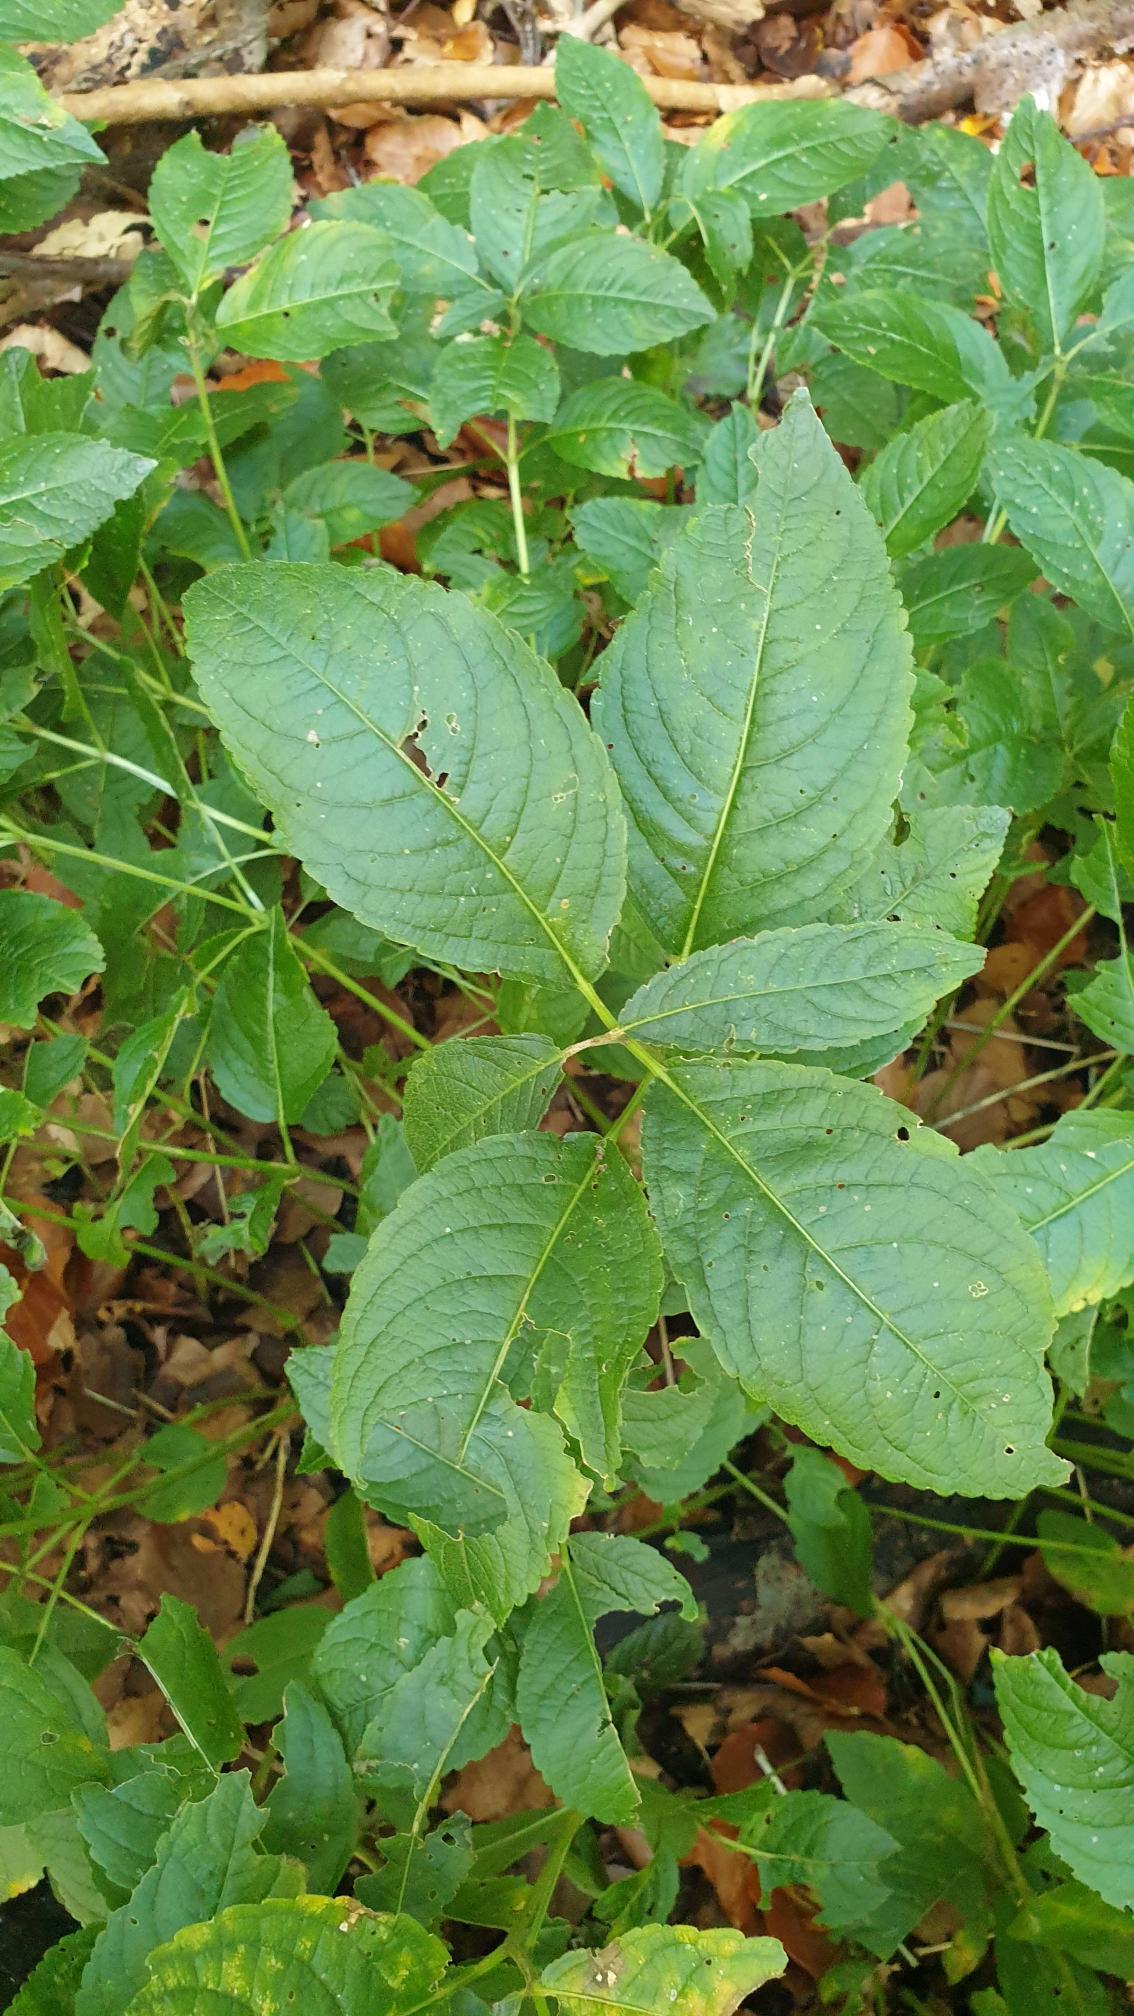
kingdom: Plantae
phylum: Tracheophyta
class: Magnoliopsida
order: Malpighiales
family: Euphorbiaceae
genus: Mercurialis
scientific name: Mercurialis perennis
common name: Almindelig bingelurt
